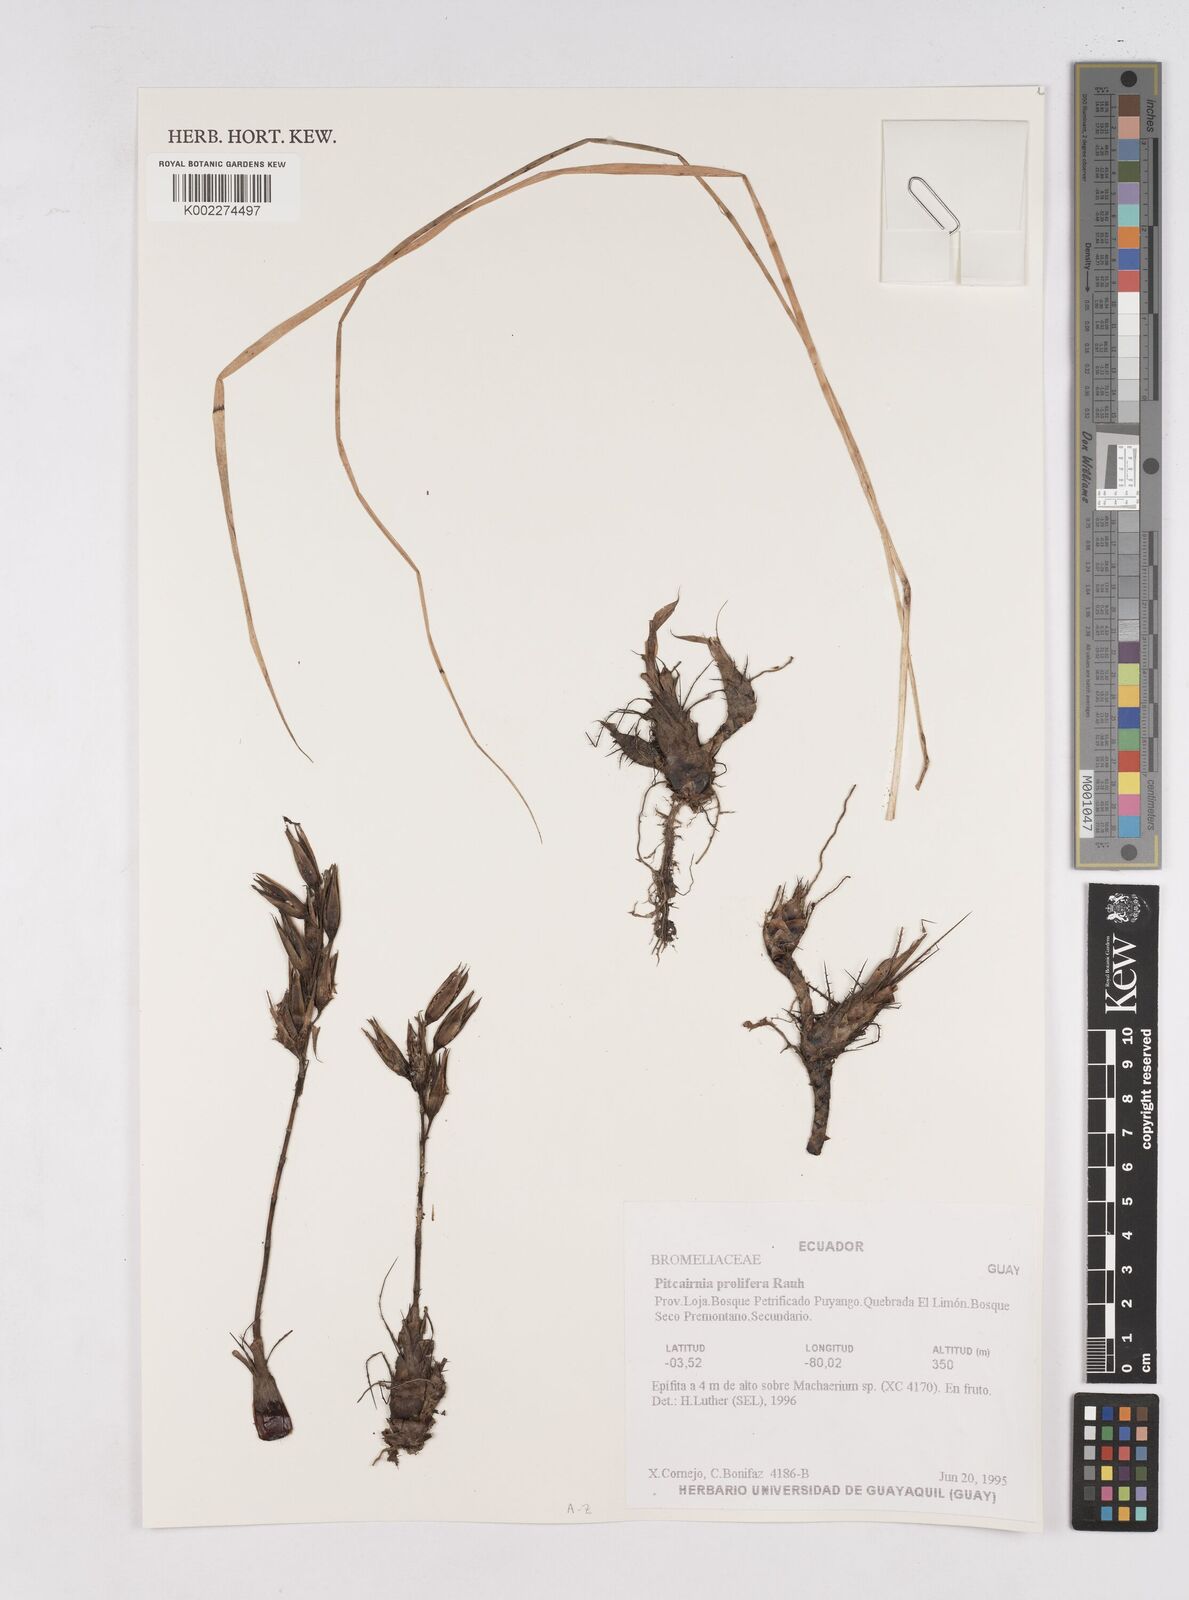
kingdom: Plantae
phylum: Tracheophyta
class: Liliopsida
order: Poales
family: Bromeliaceae
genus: Pitcairnia
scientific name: Pitcairnia prolifera
